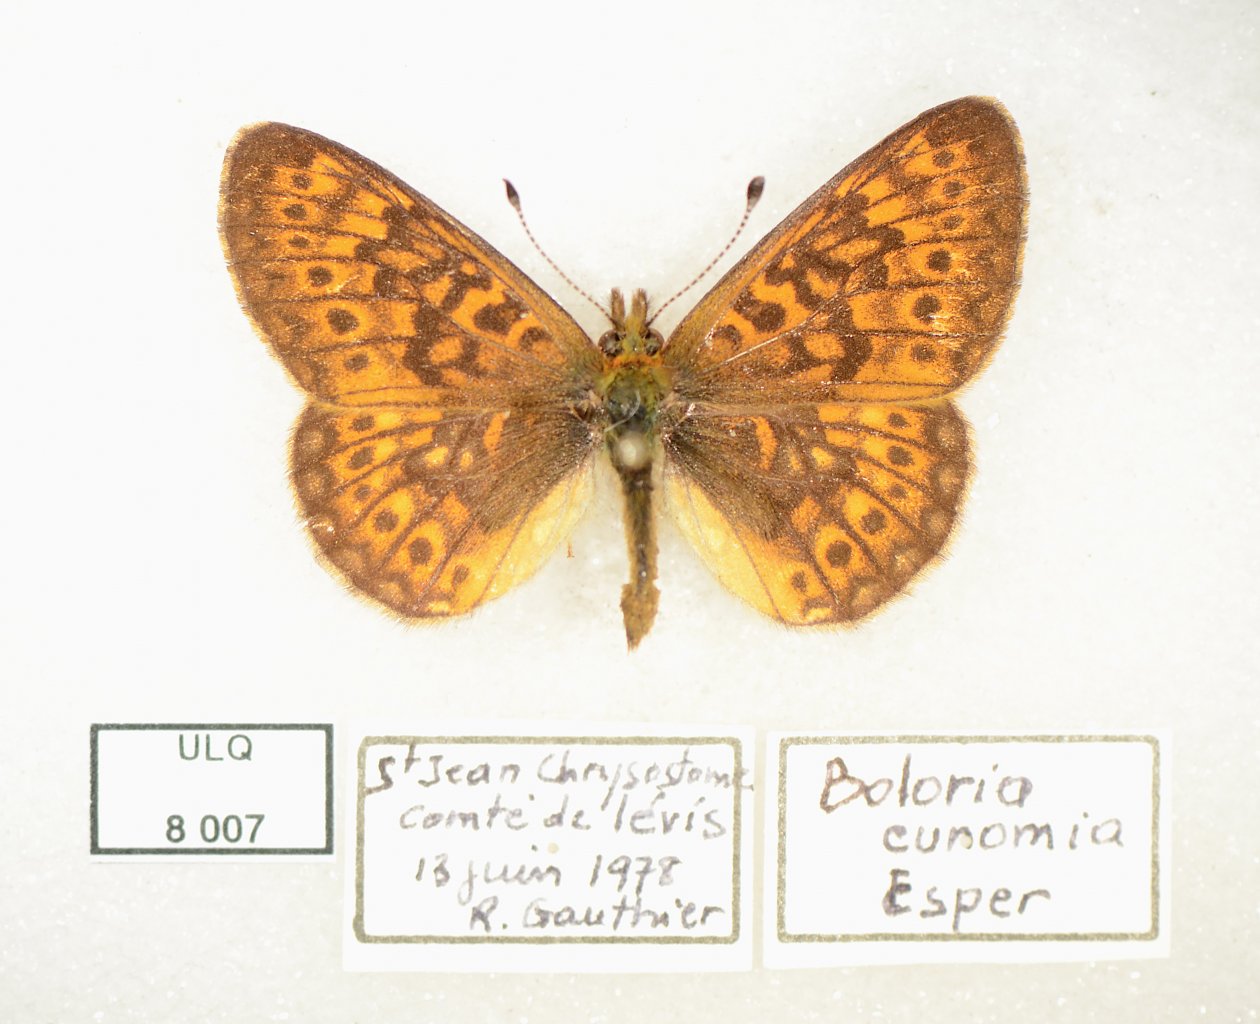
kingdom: Animalia
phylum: Arthropoda
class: Insecta
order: Lepidoptera
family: Nymphalidae
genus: Boloria
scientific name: Boloria eunomia
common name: Bog Fritillary
